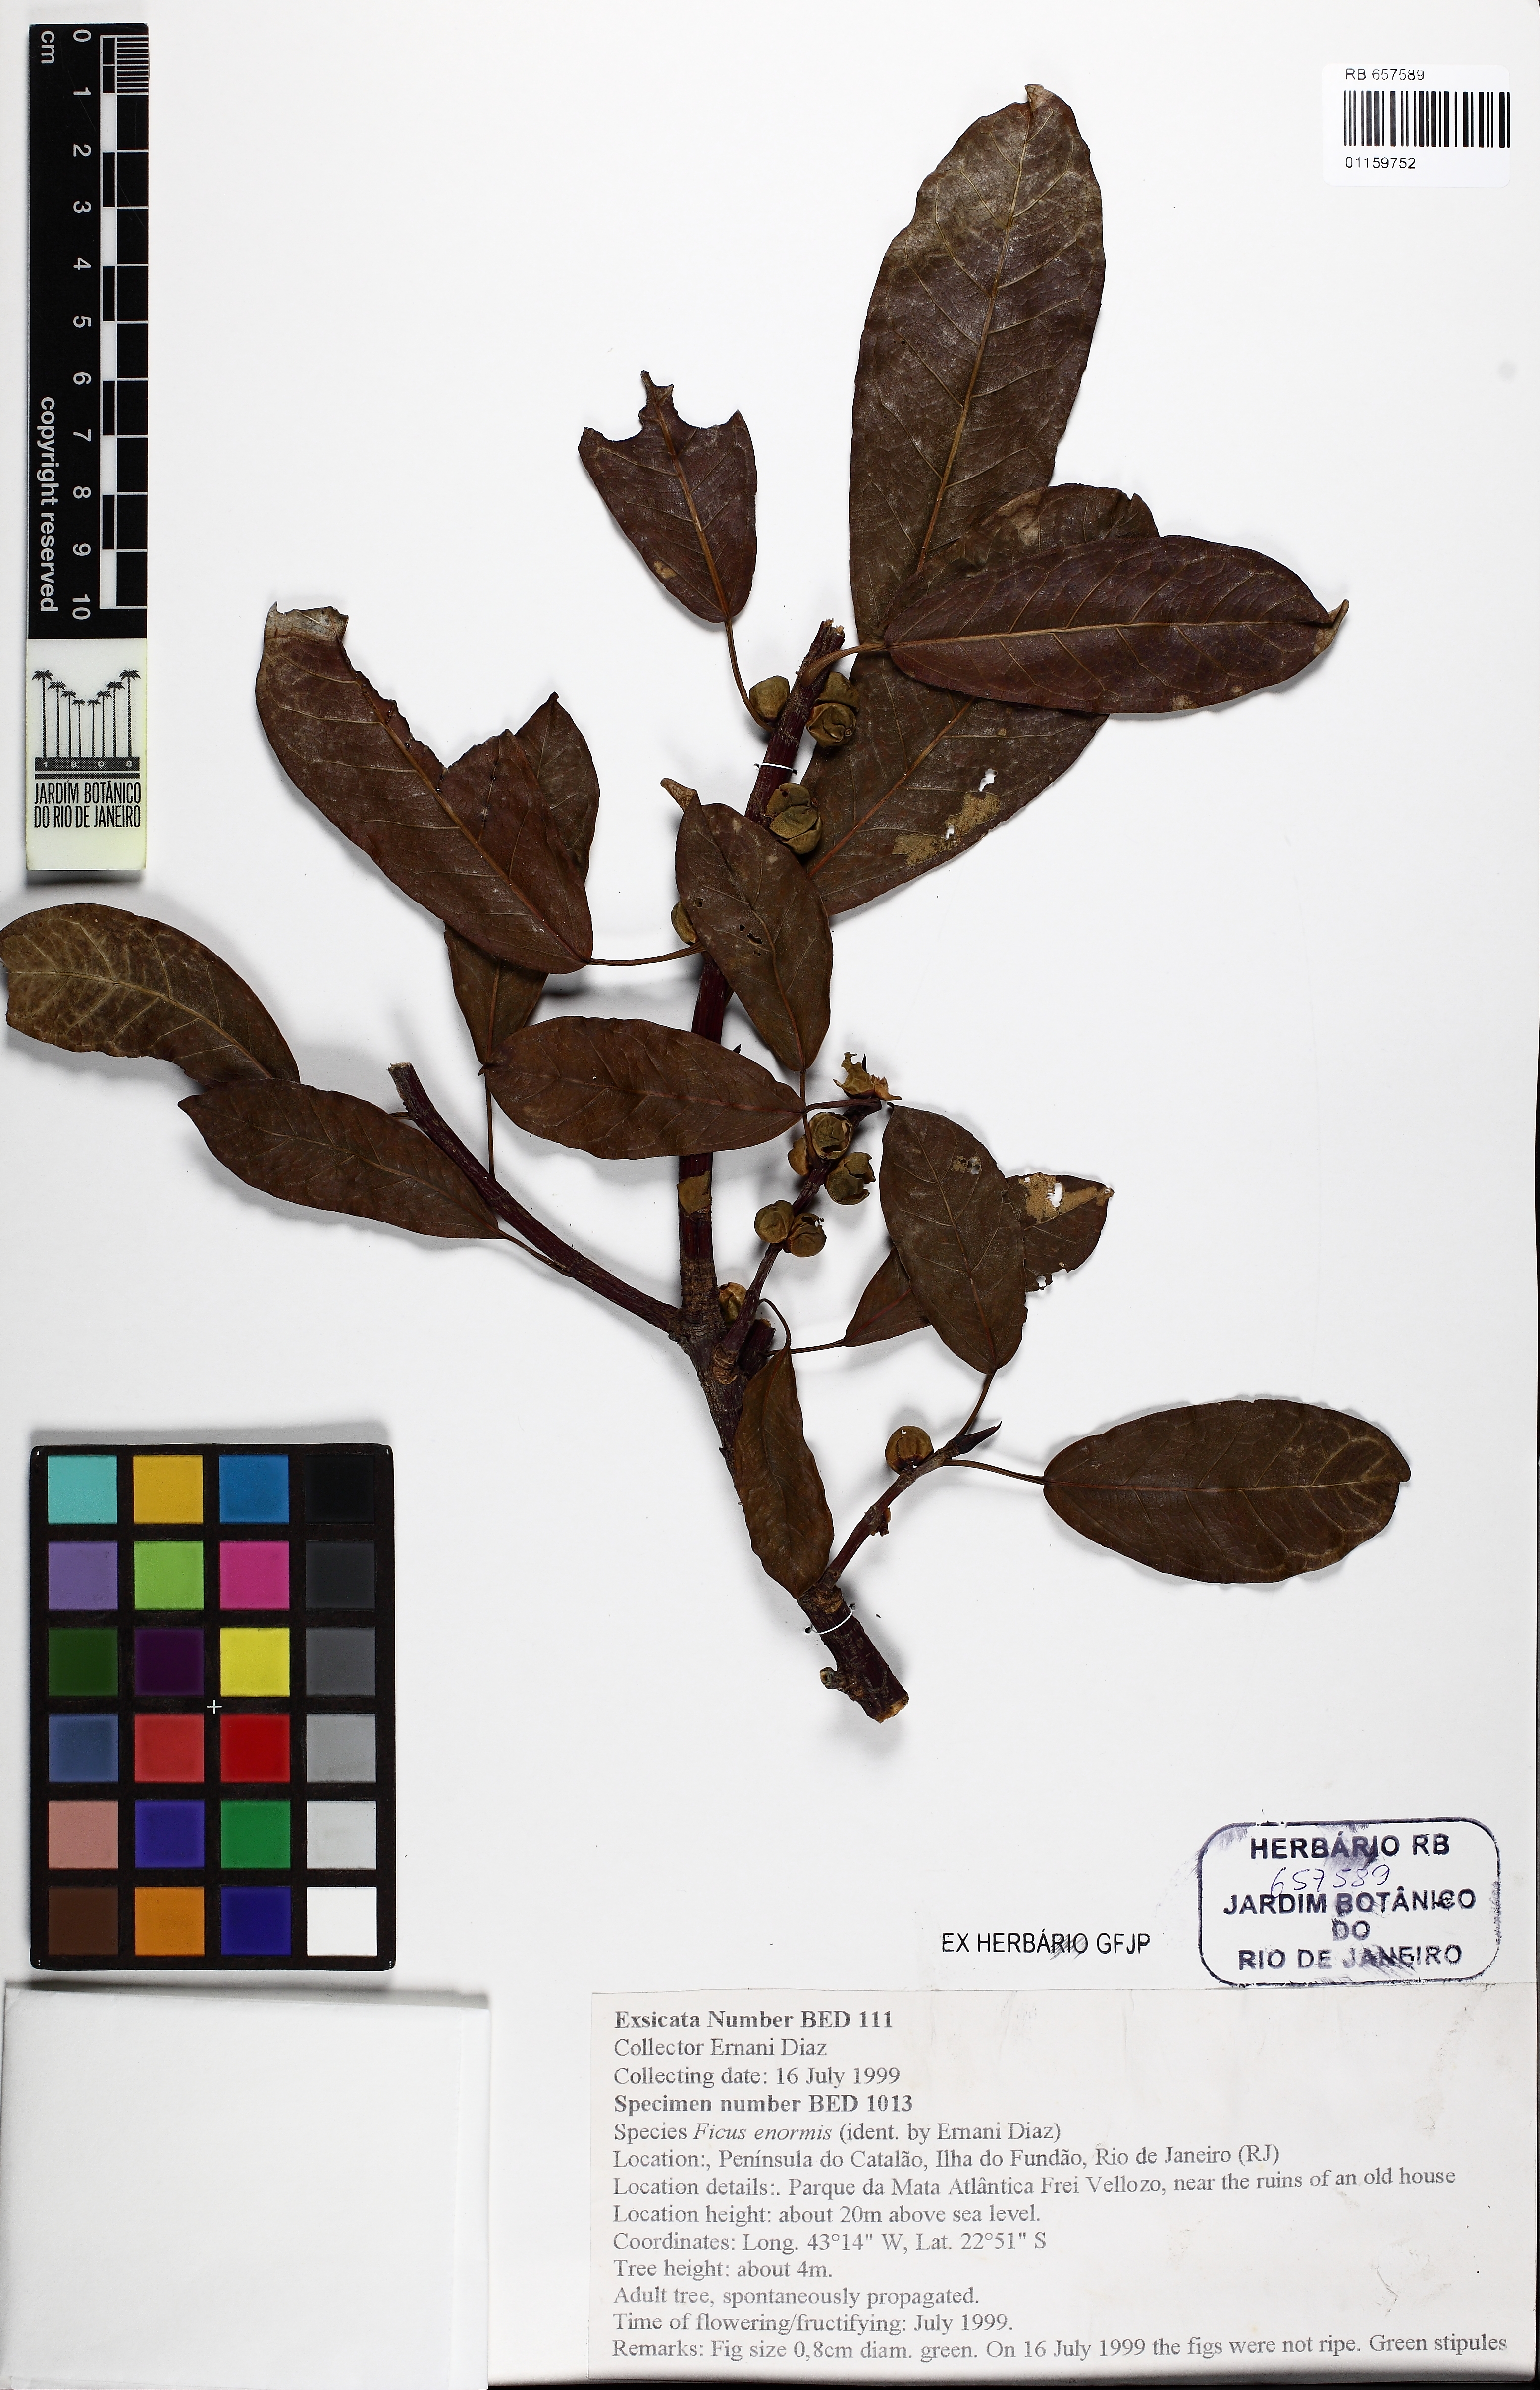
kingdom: Plantae
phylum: Tracheophyta
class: Magnoliopsida
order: Rosales
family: Moraceae
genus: Ficus
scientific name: Ficus enormis
